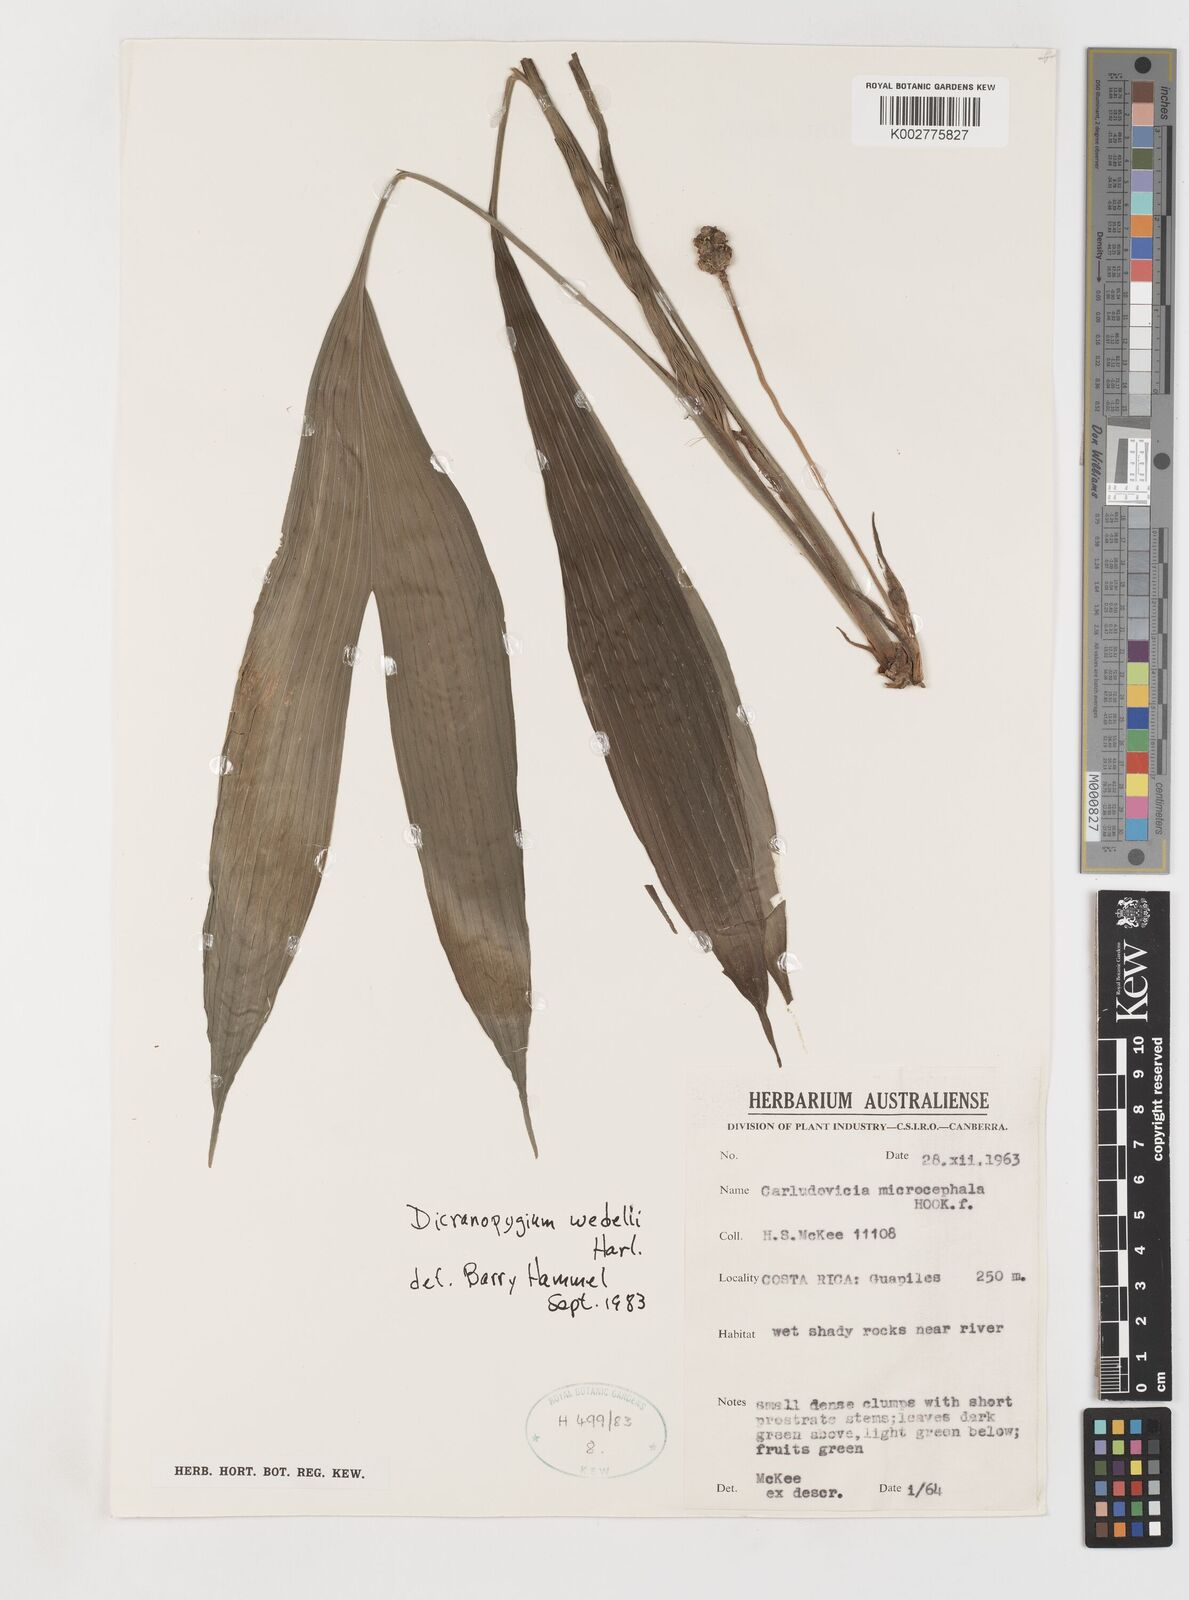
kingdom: Plantae
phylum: Tracheophyta
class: Liliopsida
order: Pandanales
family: Cyclanthaceae
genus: Dicranopygium
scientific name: Dicranopygium wedelii
